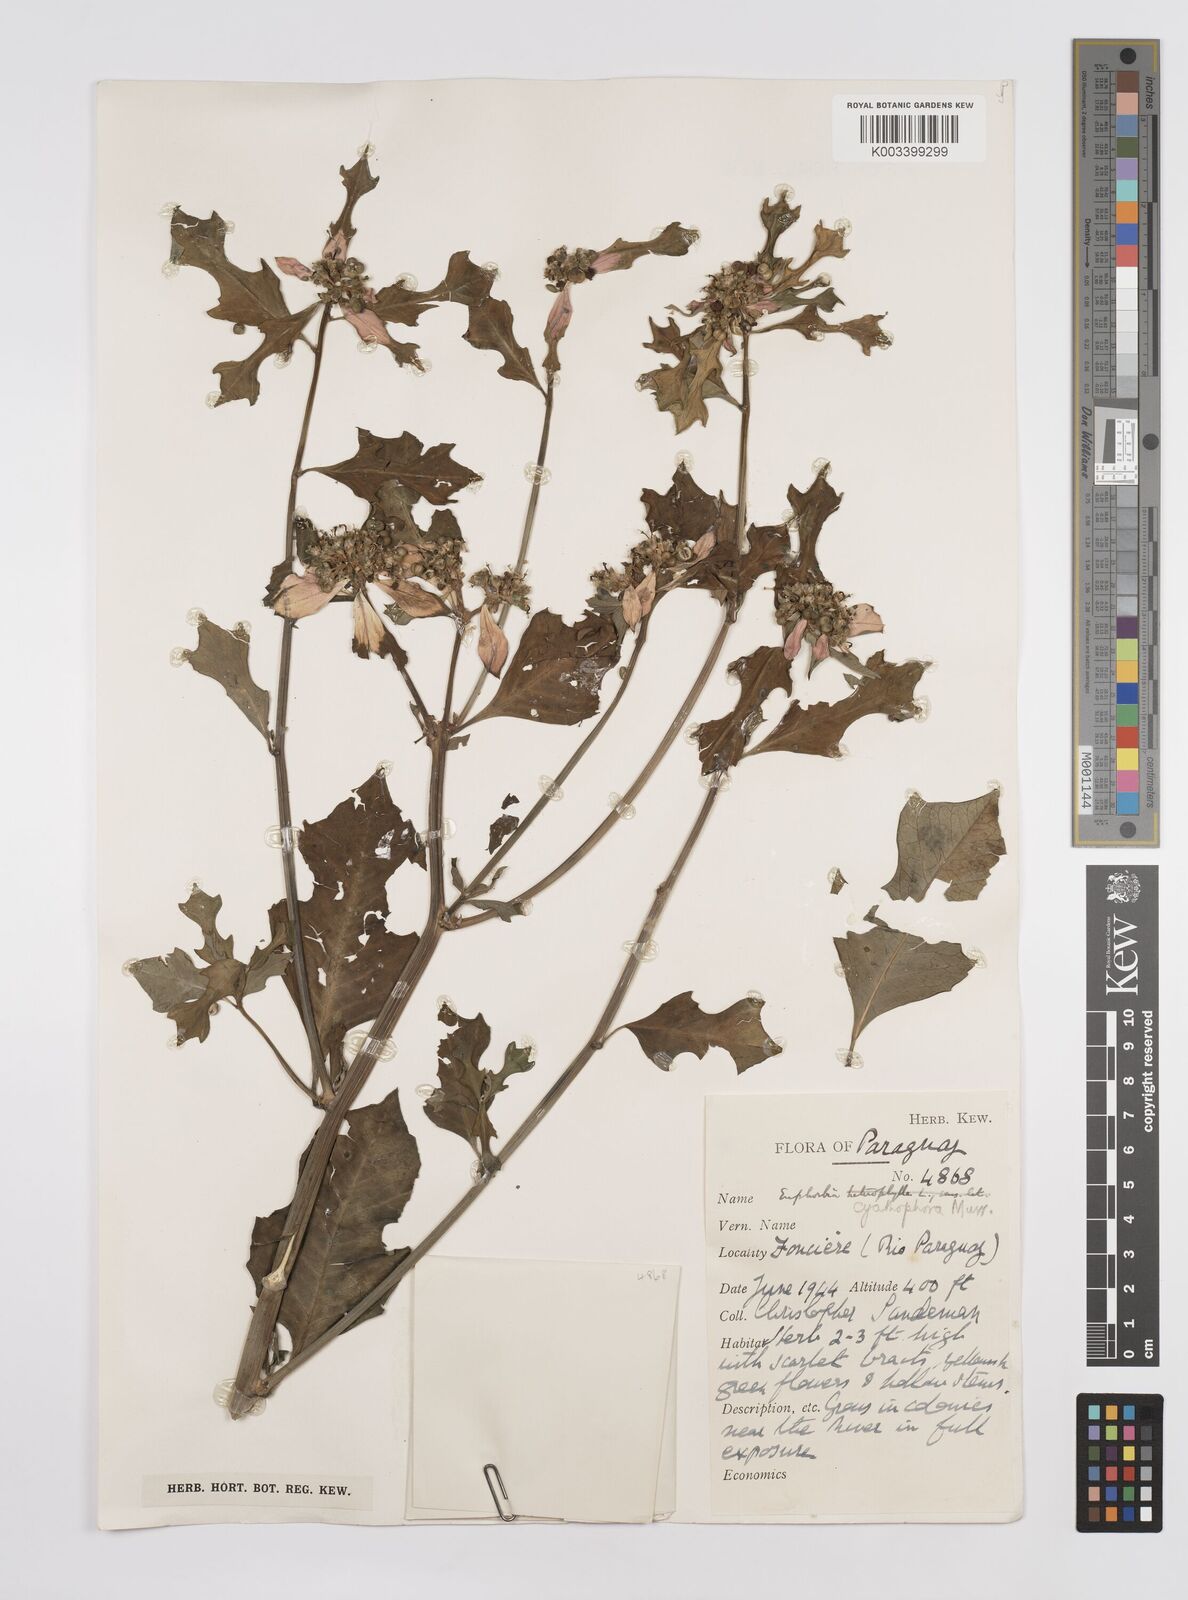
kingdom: Plantae
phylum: Tracheophyta
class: Magnoliopsida
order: Malpighiales
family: Euphorbiaceae
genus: Euphorbia
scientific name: Euphorbia heterophylla
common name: Mexican fireplant
